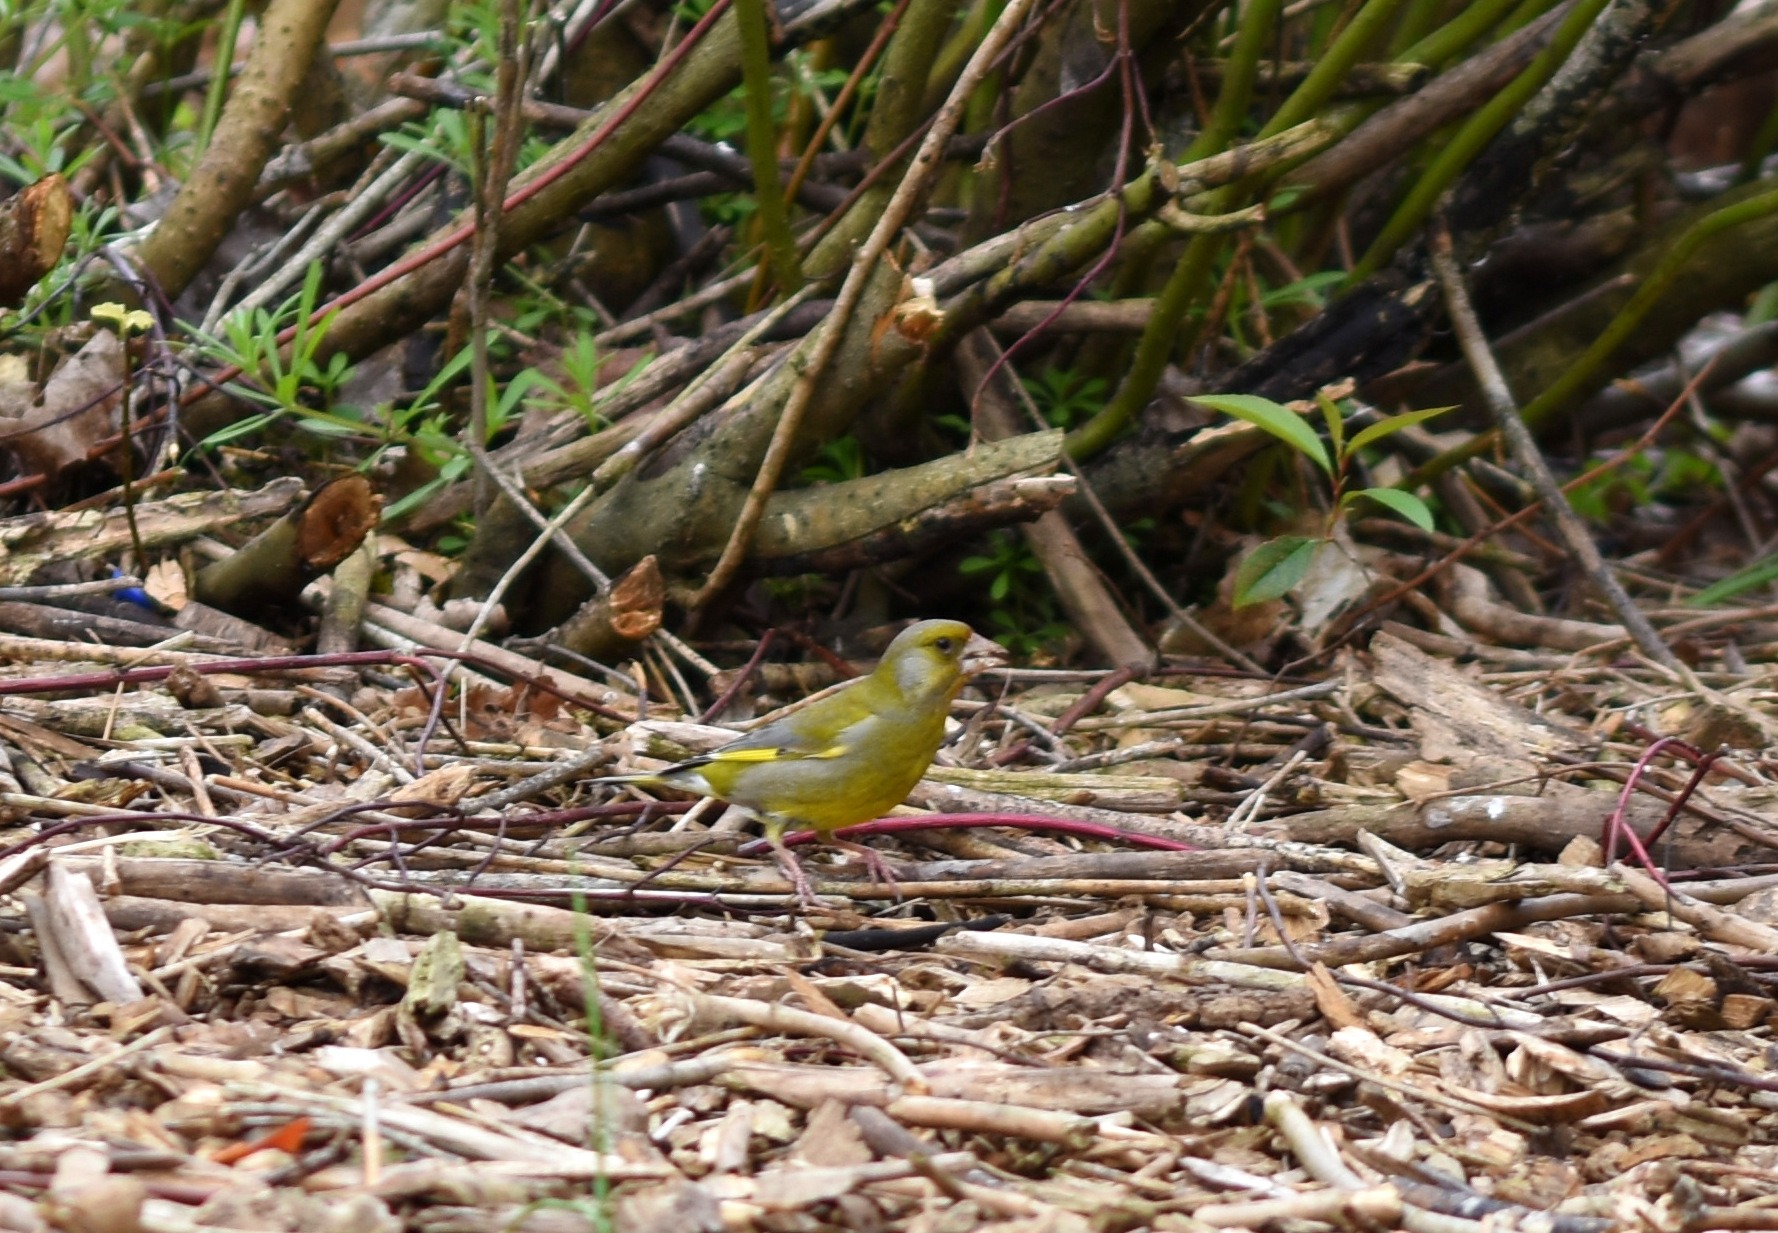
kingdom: Plantae
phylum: Tracheophyta
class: Liliopsida
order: Poales
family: Poaceae
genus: Chloris
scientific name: Chloris chloris
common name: Grønirisk
